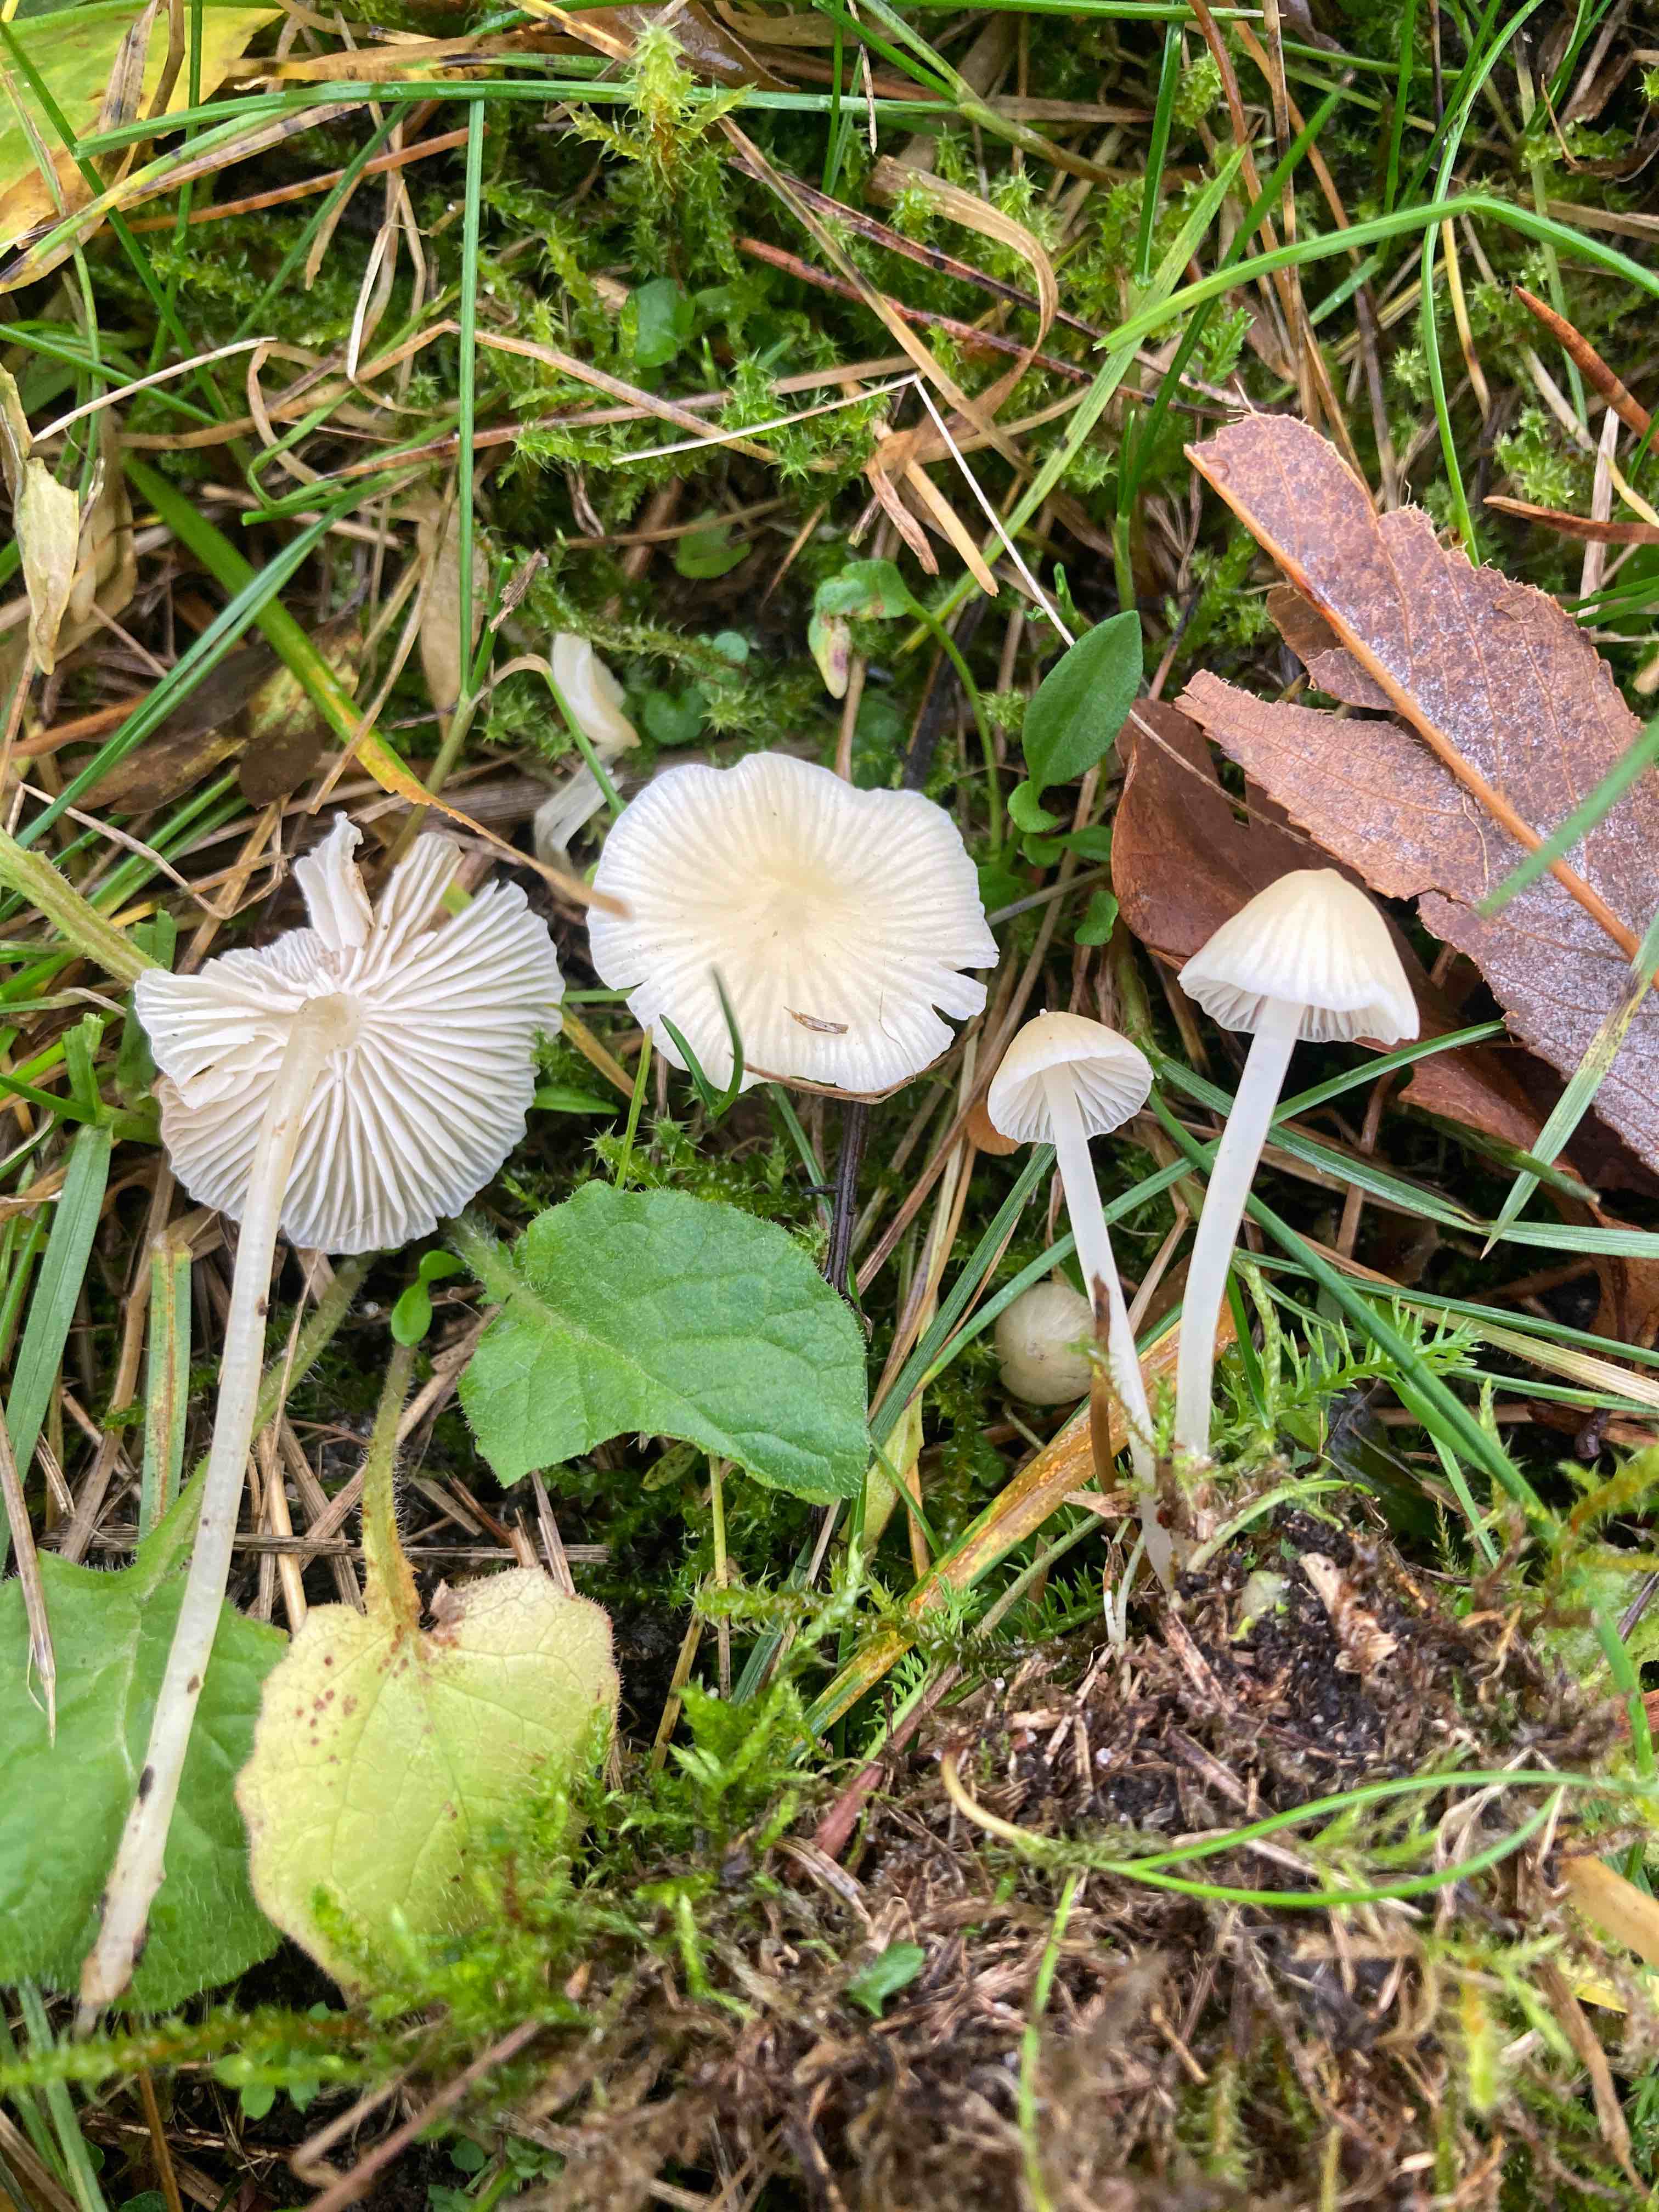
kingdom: Fungi
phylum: Basidiomycota
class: Agaricomycetes
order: Agaricales
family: Mycenaceae
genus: Atheniella
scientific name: Atheniella flavoalba
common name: gulhvid huesvamp
